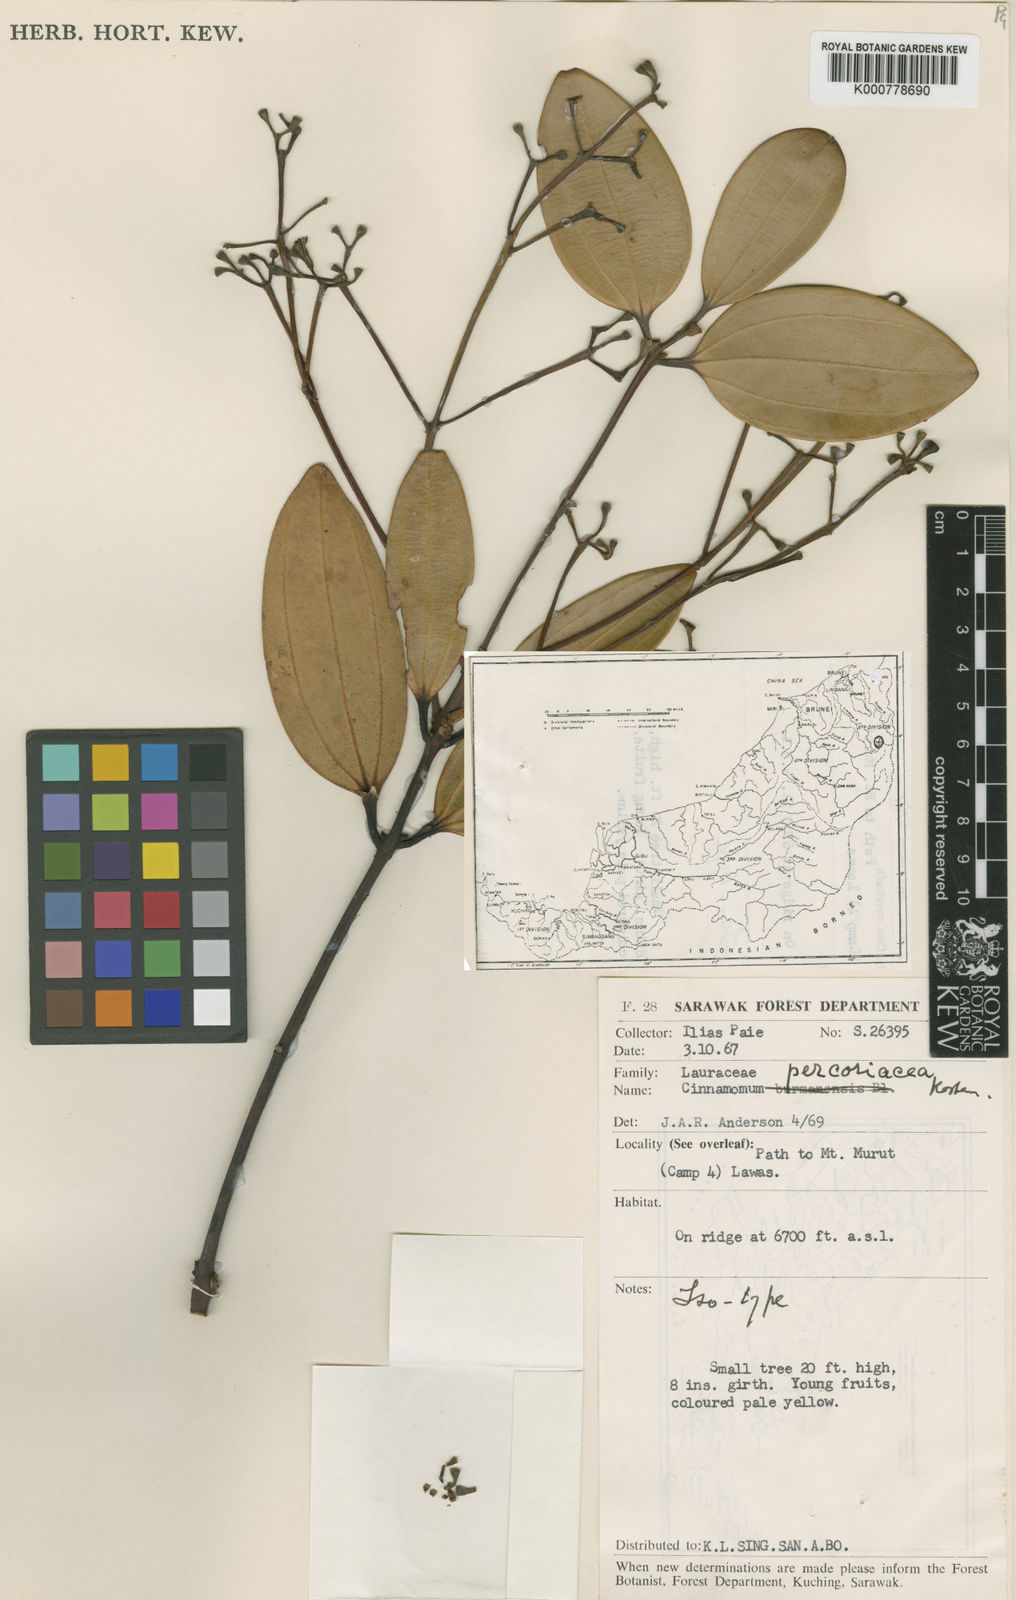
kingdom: Plantae
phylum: Tracheophyta
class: Magnoliopsida
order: Laurales
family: Lauraceae
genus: Cinnamomum
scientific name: Cinnamomum percoriaceum
